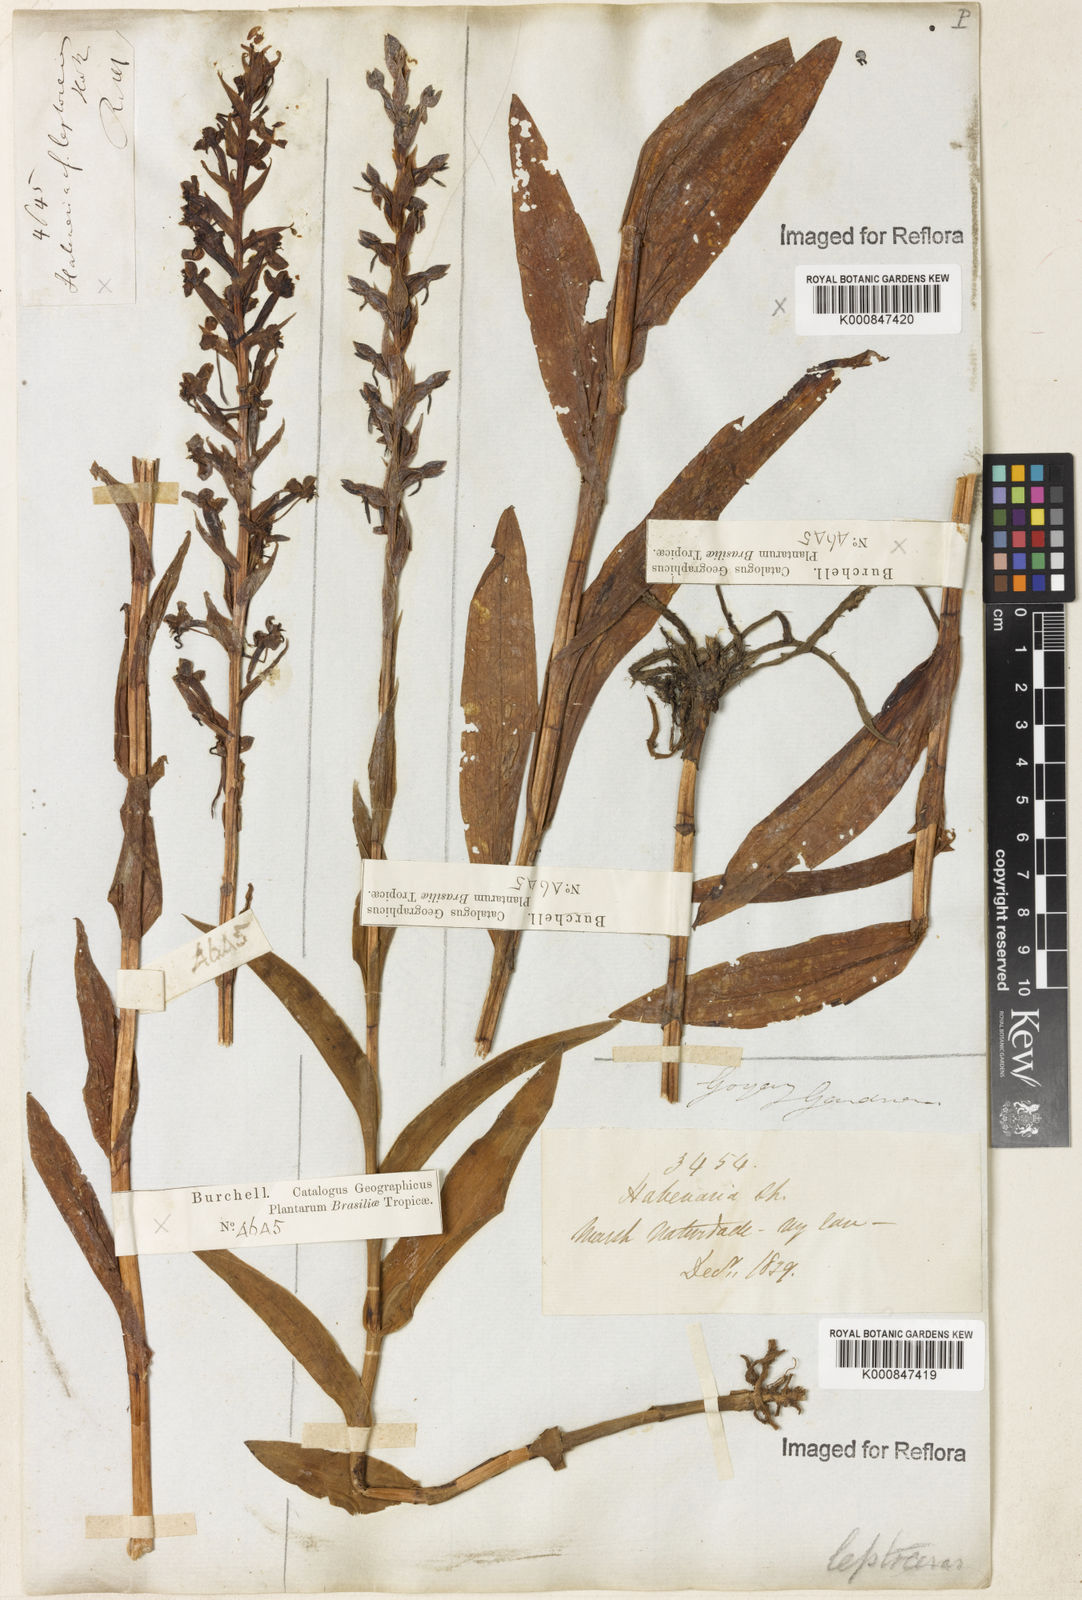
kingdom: Plantae
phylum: Tracheophyta
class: Liliopsida
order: Asparagales
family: Orchidaceae
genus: Habenaria
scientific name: Habenaria leptoceras
